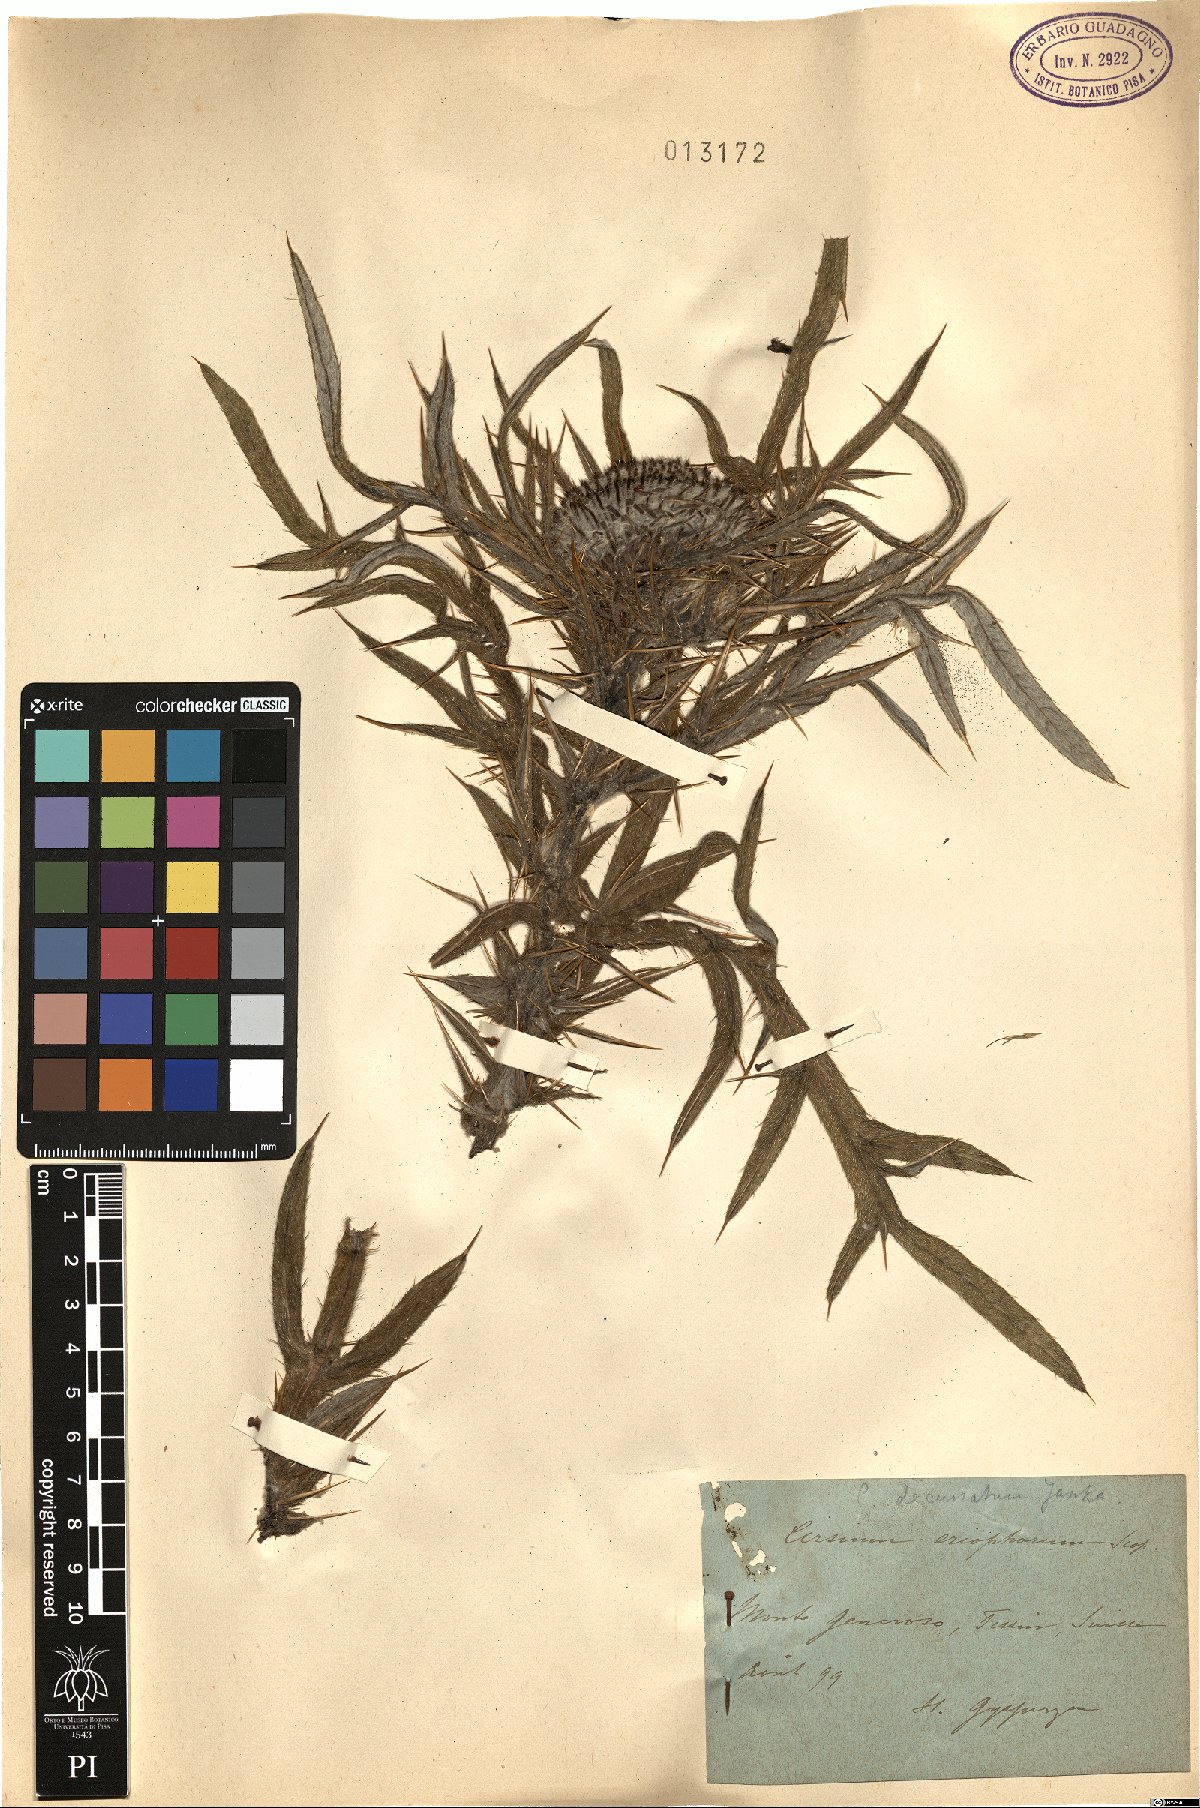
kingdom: Plantae
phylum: Tracheophyta
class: Magnoliopsida
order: Asterales
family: Asteraceae
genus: Lophiolepis
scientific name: Lophiolepis eriophora
